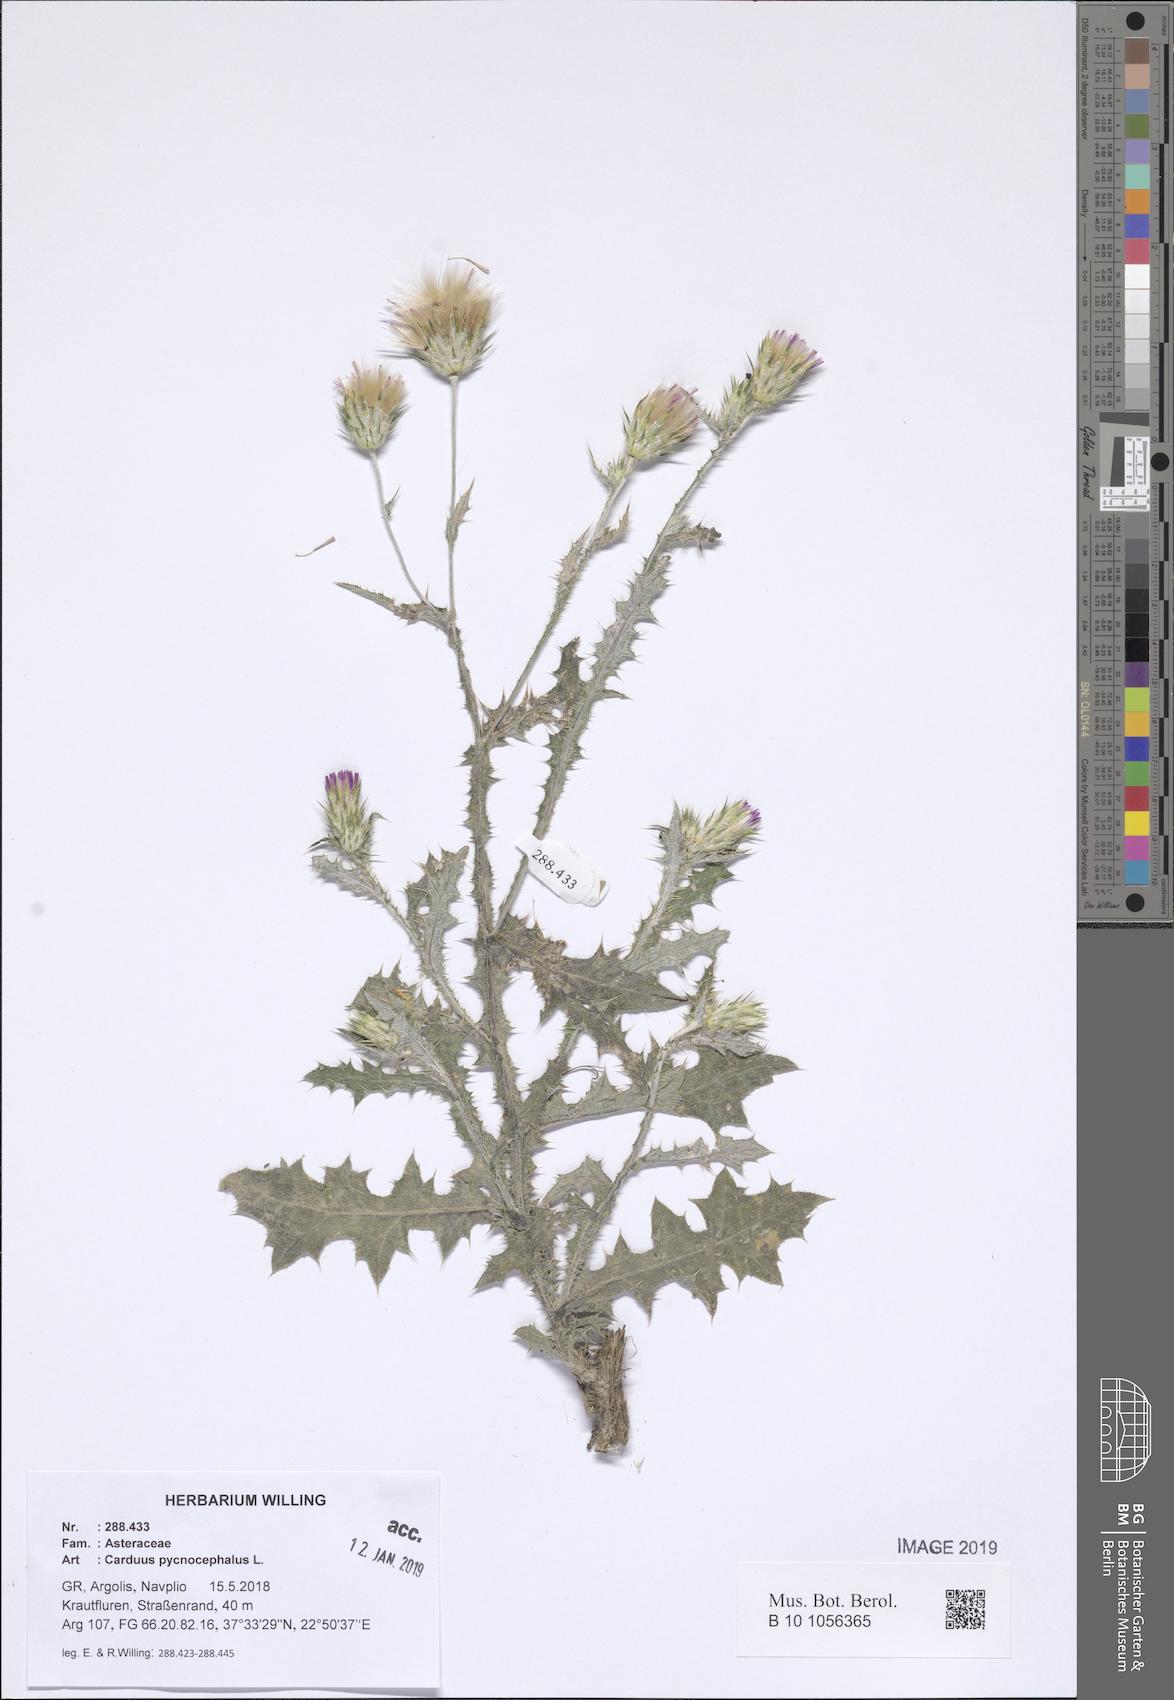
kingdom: Plantae
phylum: Tracheophyta
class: Magnoliopsida
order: Asterales
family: Asteraceae
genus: Carduus
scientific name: Carduus pycnocephalus
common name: Plymouth thistle
